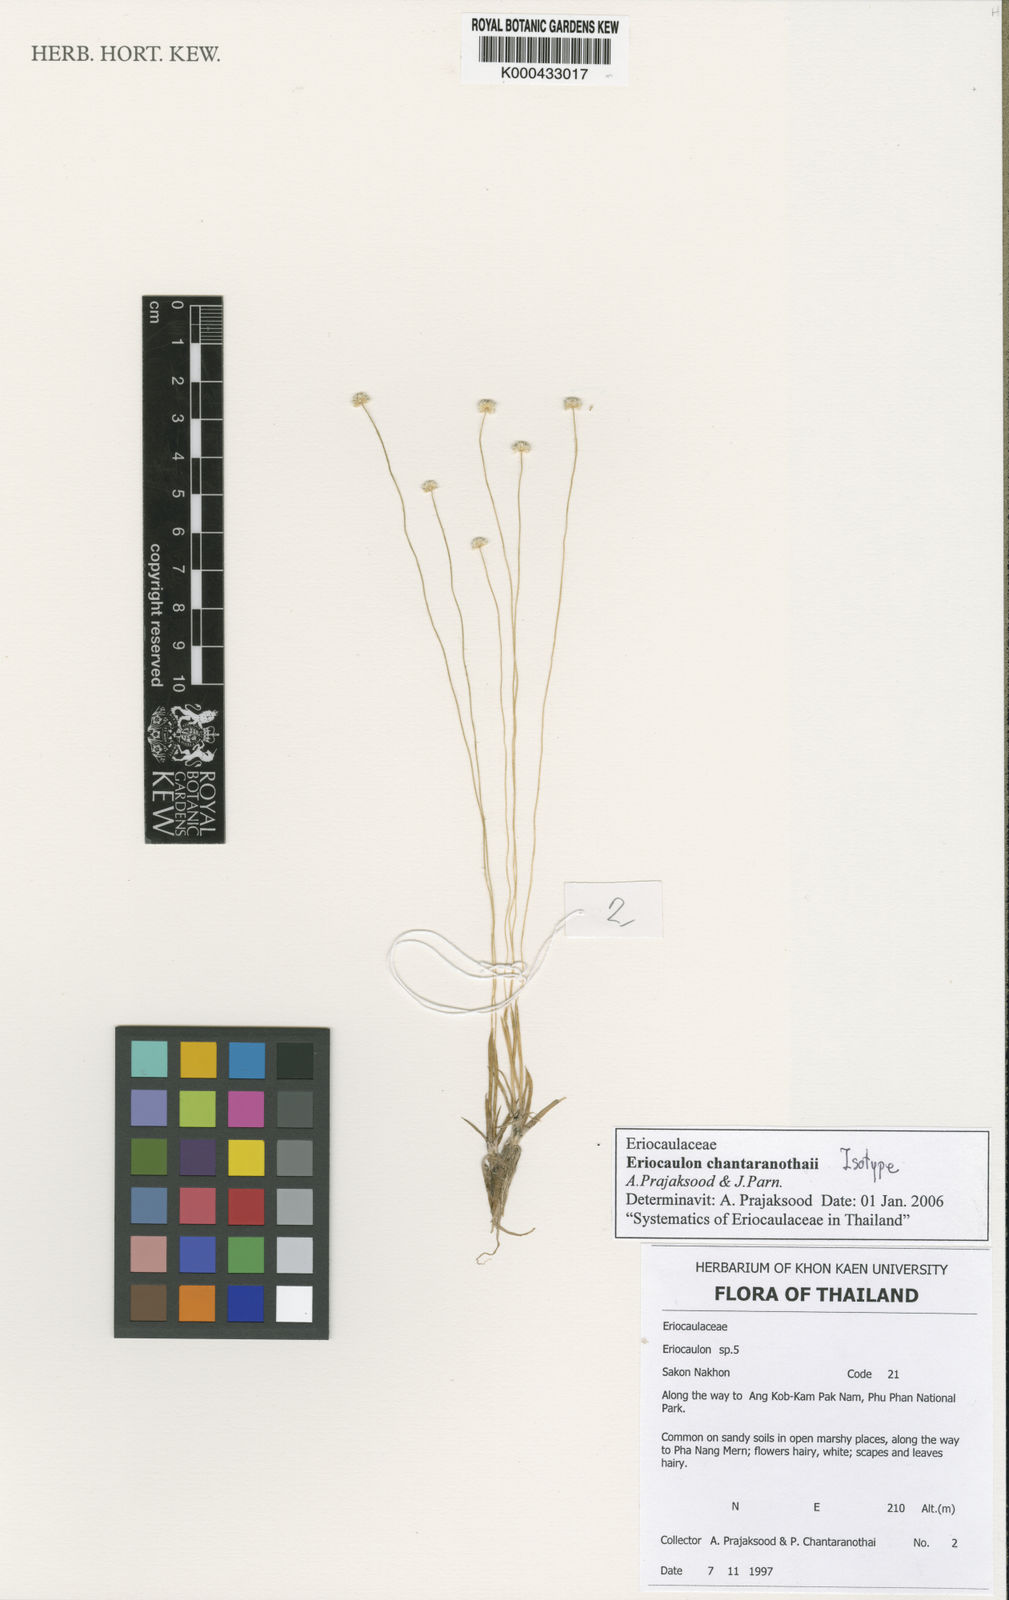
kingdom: Plantae
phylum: Tracheophyta
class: Liliopsida
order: Poales
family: Eriocaulaceae
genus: Eriocaulon
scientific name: Eriocaulon chantaranothaii
